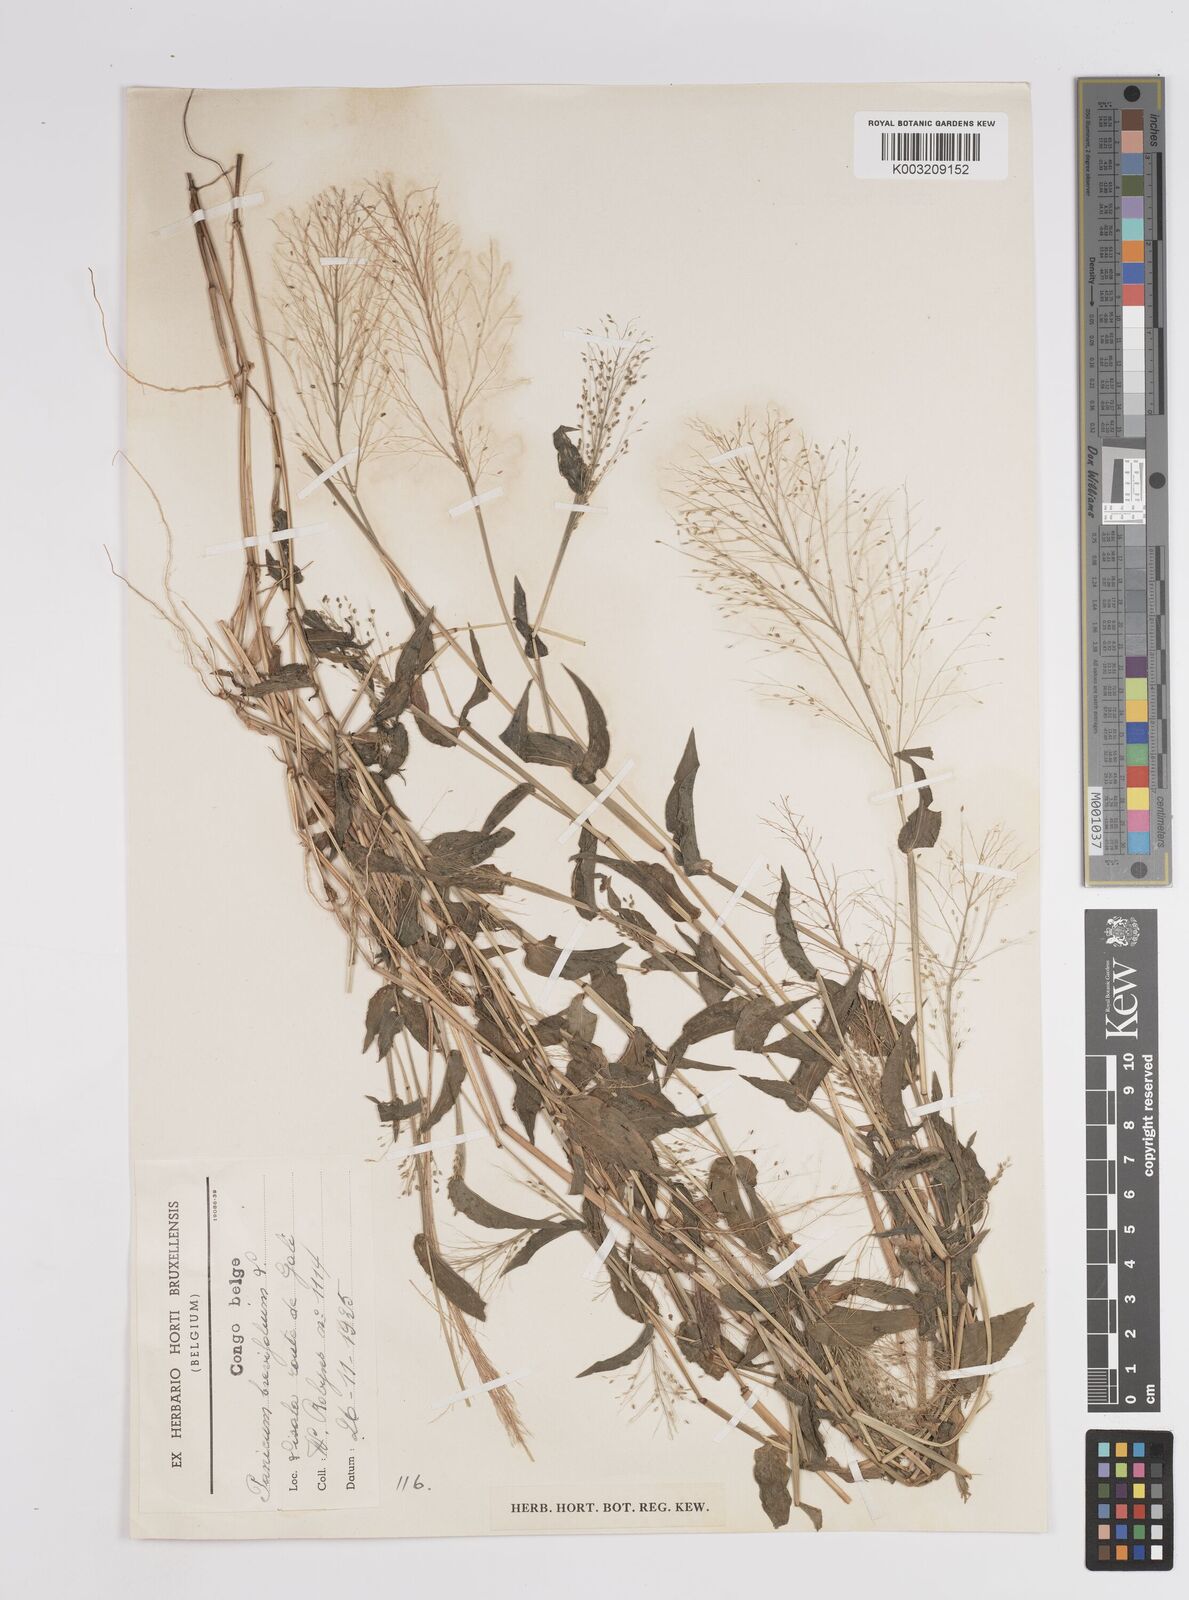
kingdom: Plantae
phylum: Tracheophyta
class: Liliopsida
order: Poales
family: Poaceae
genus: Panicum
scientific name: Panicum brevifolium
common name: Shortleaf panic grass
